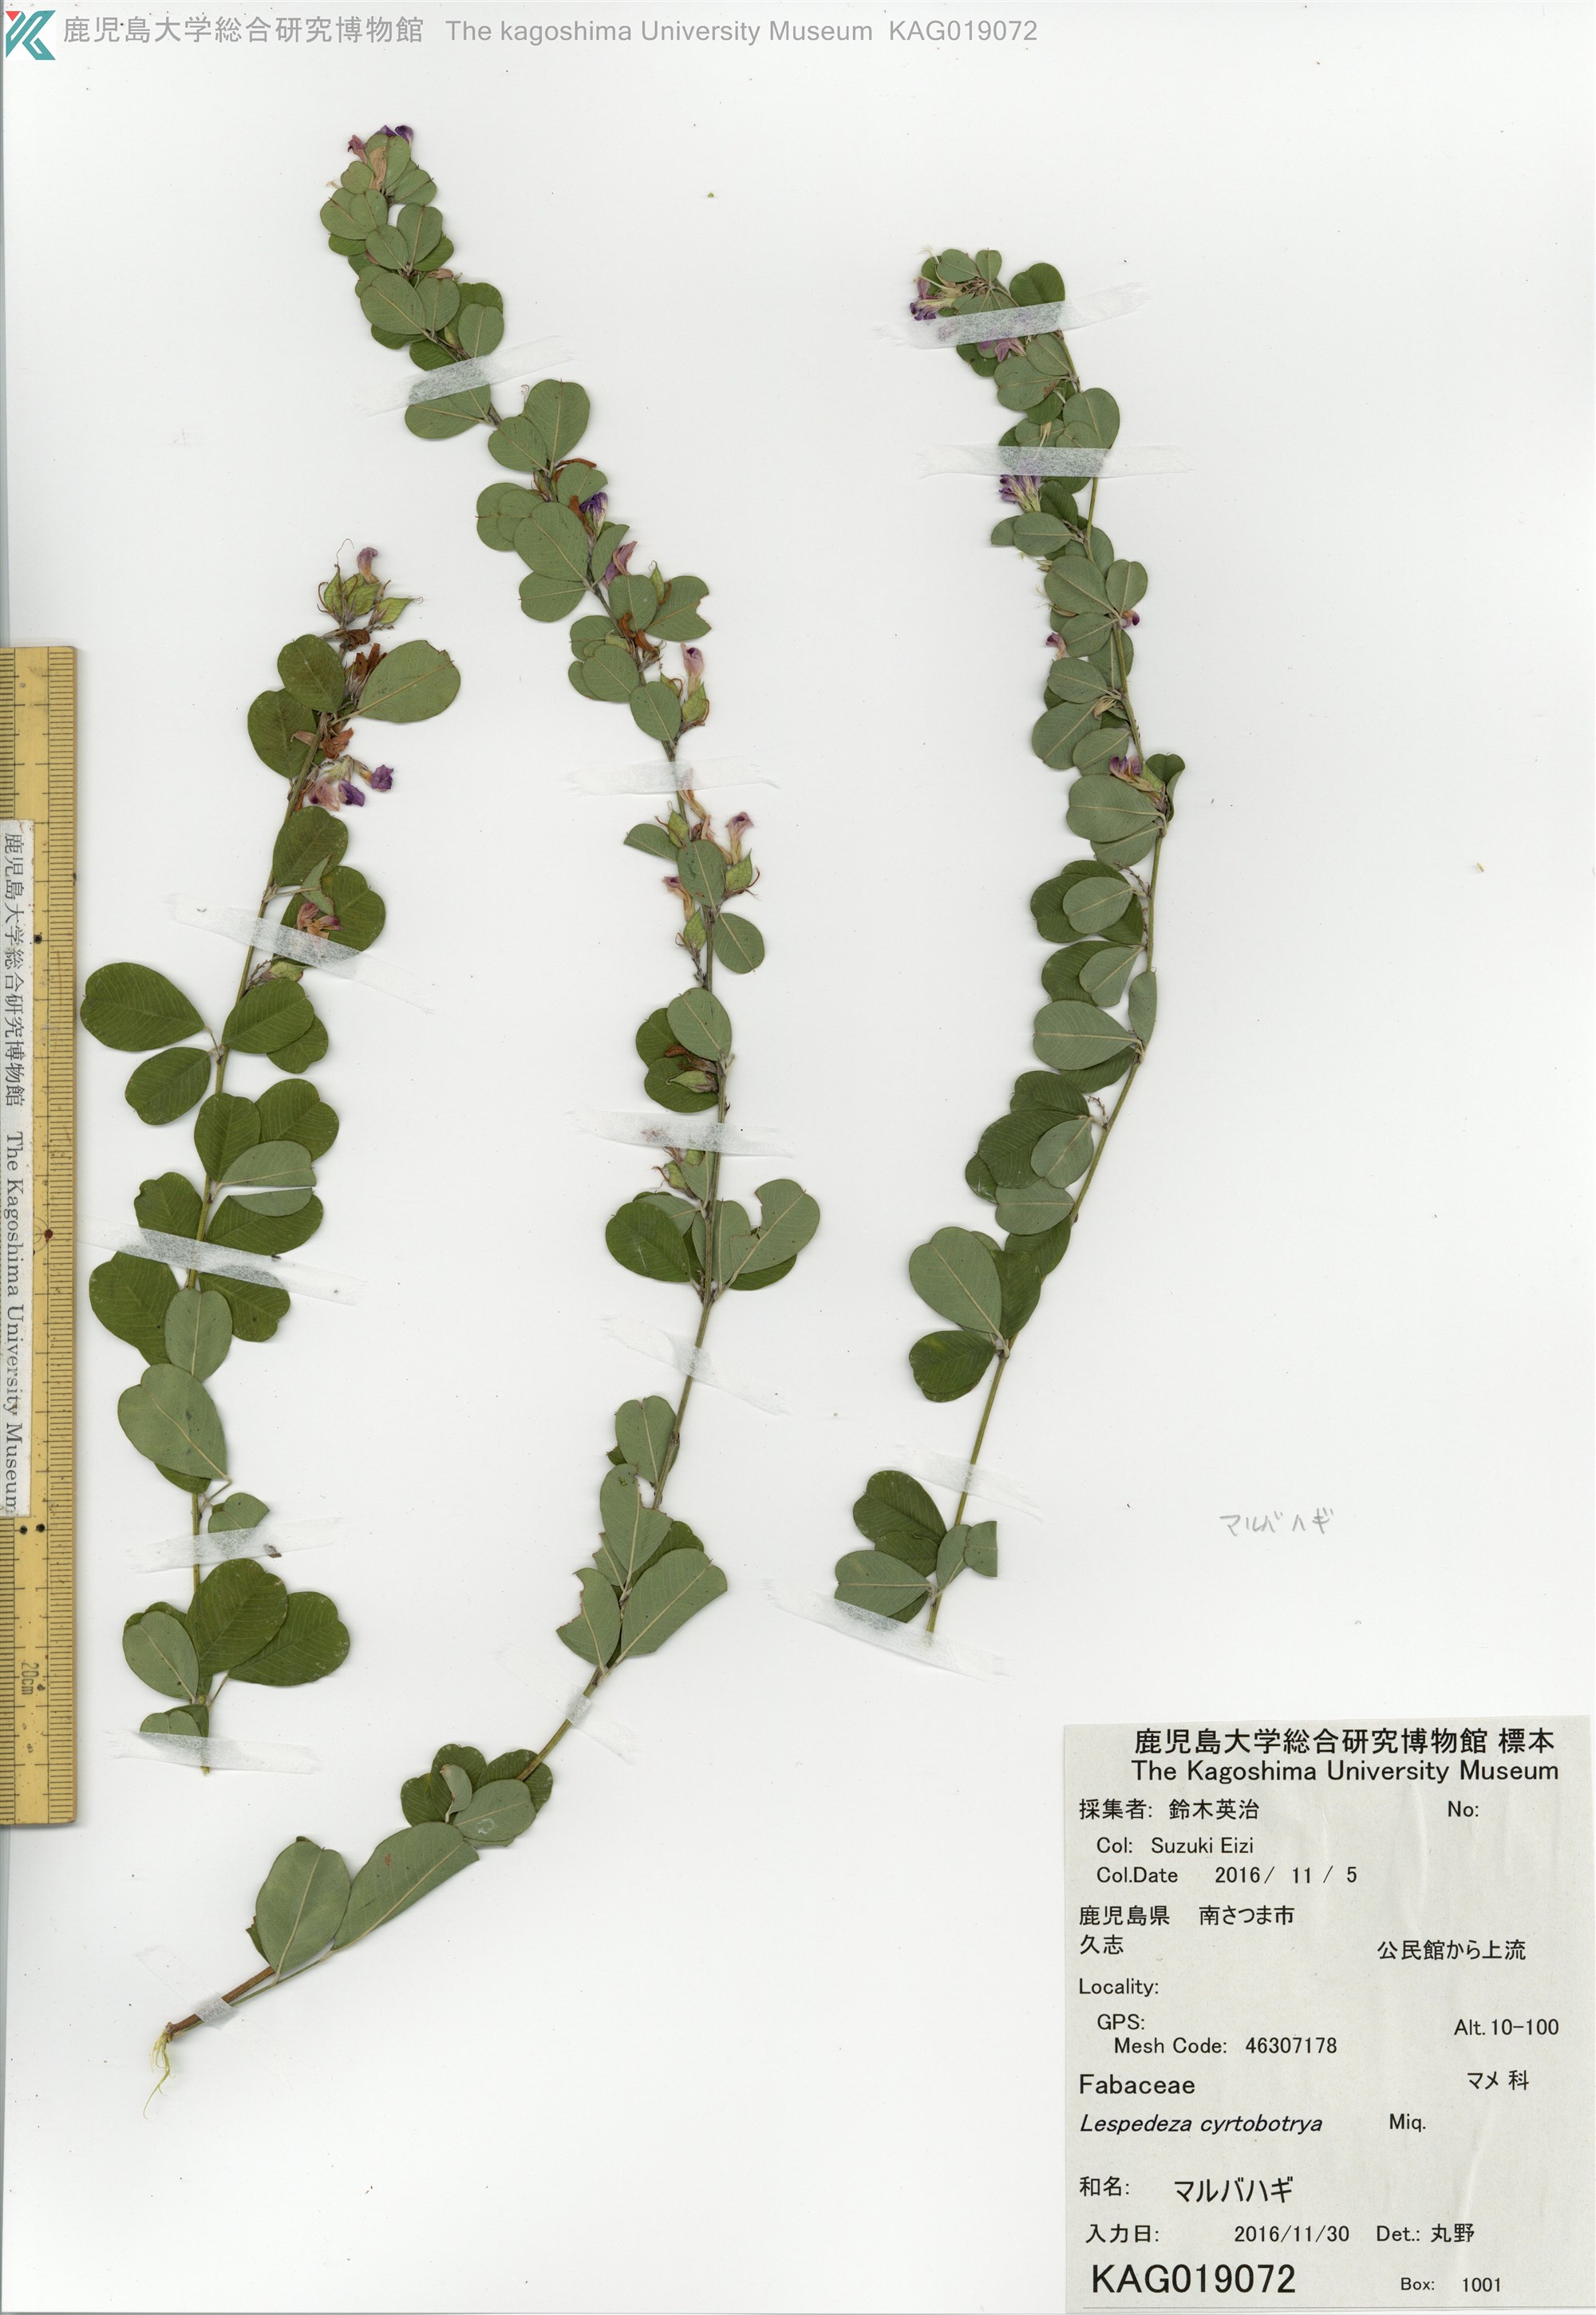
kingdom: Plantae
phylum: Tracheophyta
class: Magnoliopsida
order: Fabales
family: Fabaceae
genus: Lespedeza
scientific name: Lespedeza cyrtobotrya
